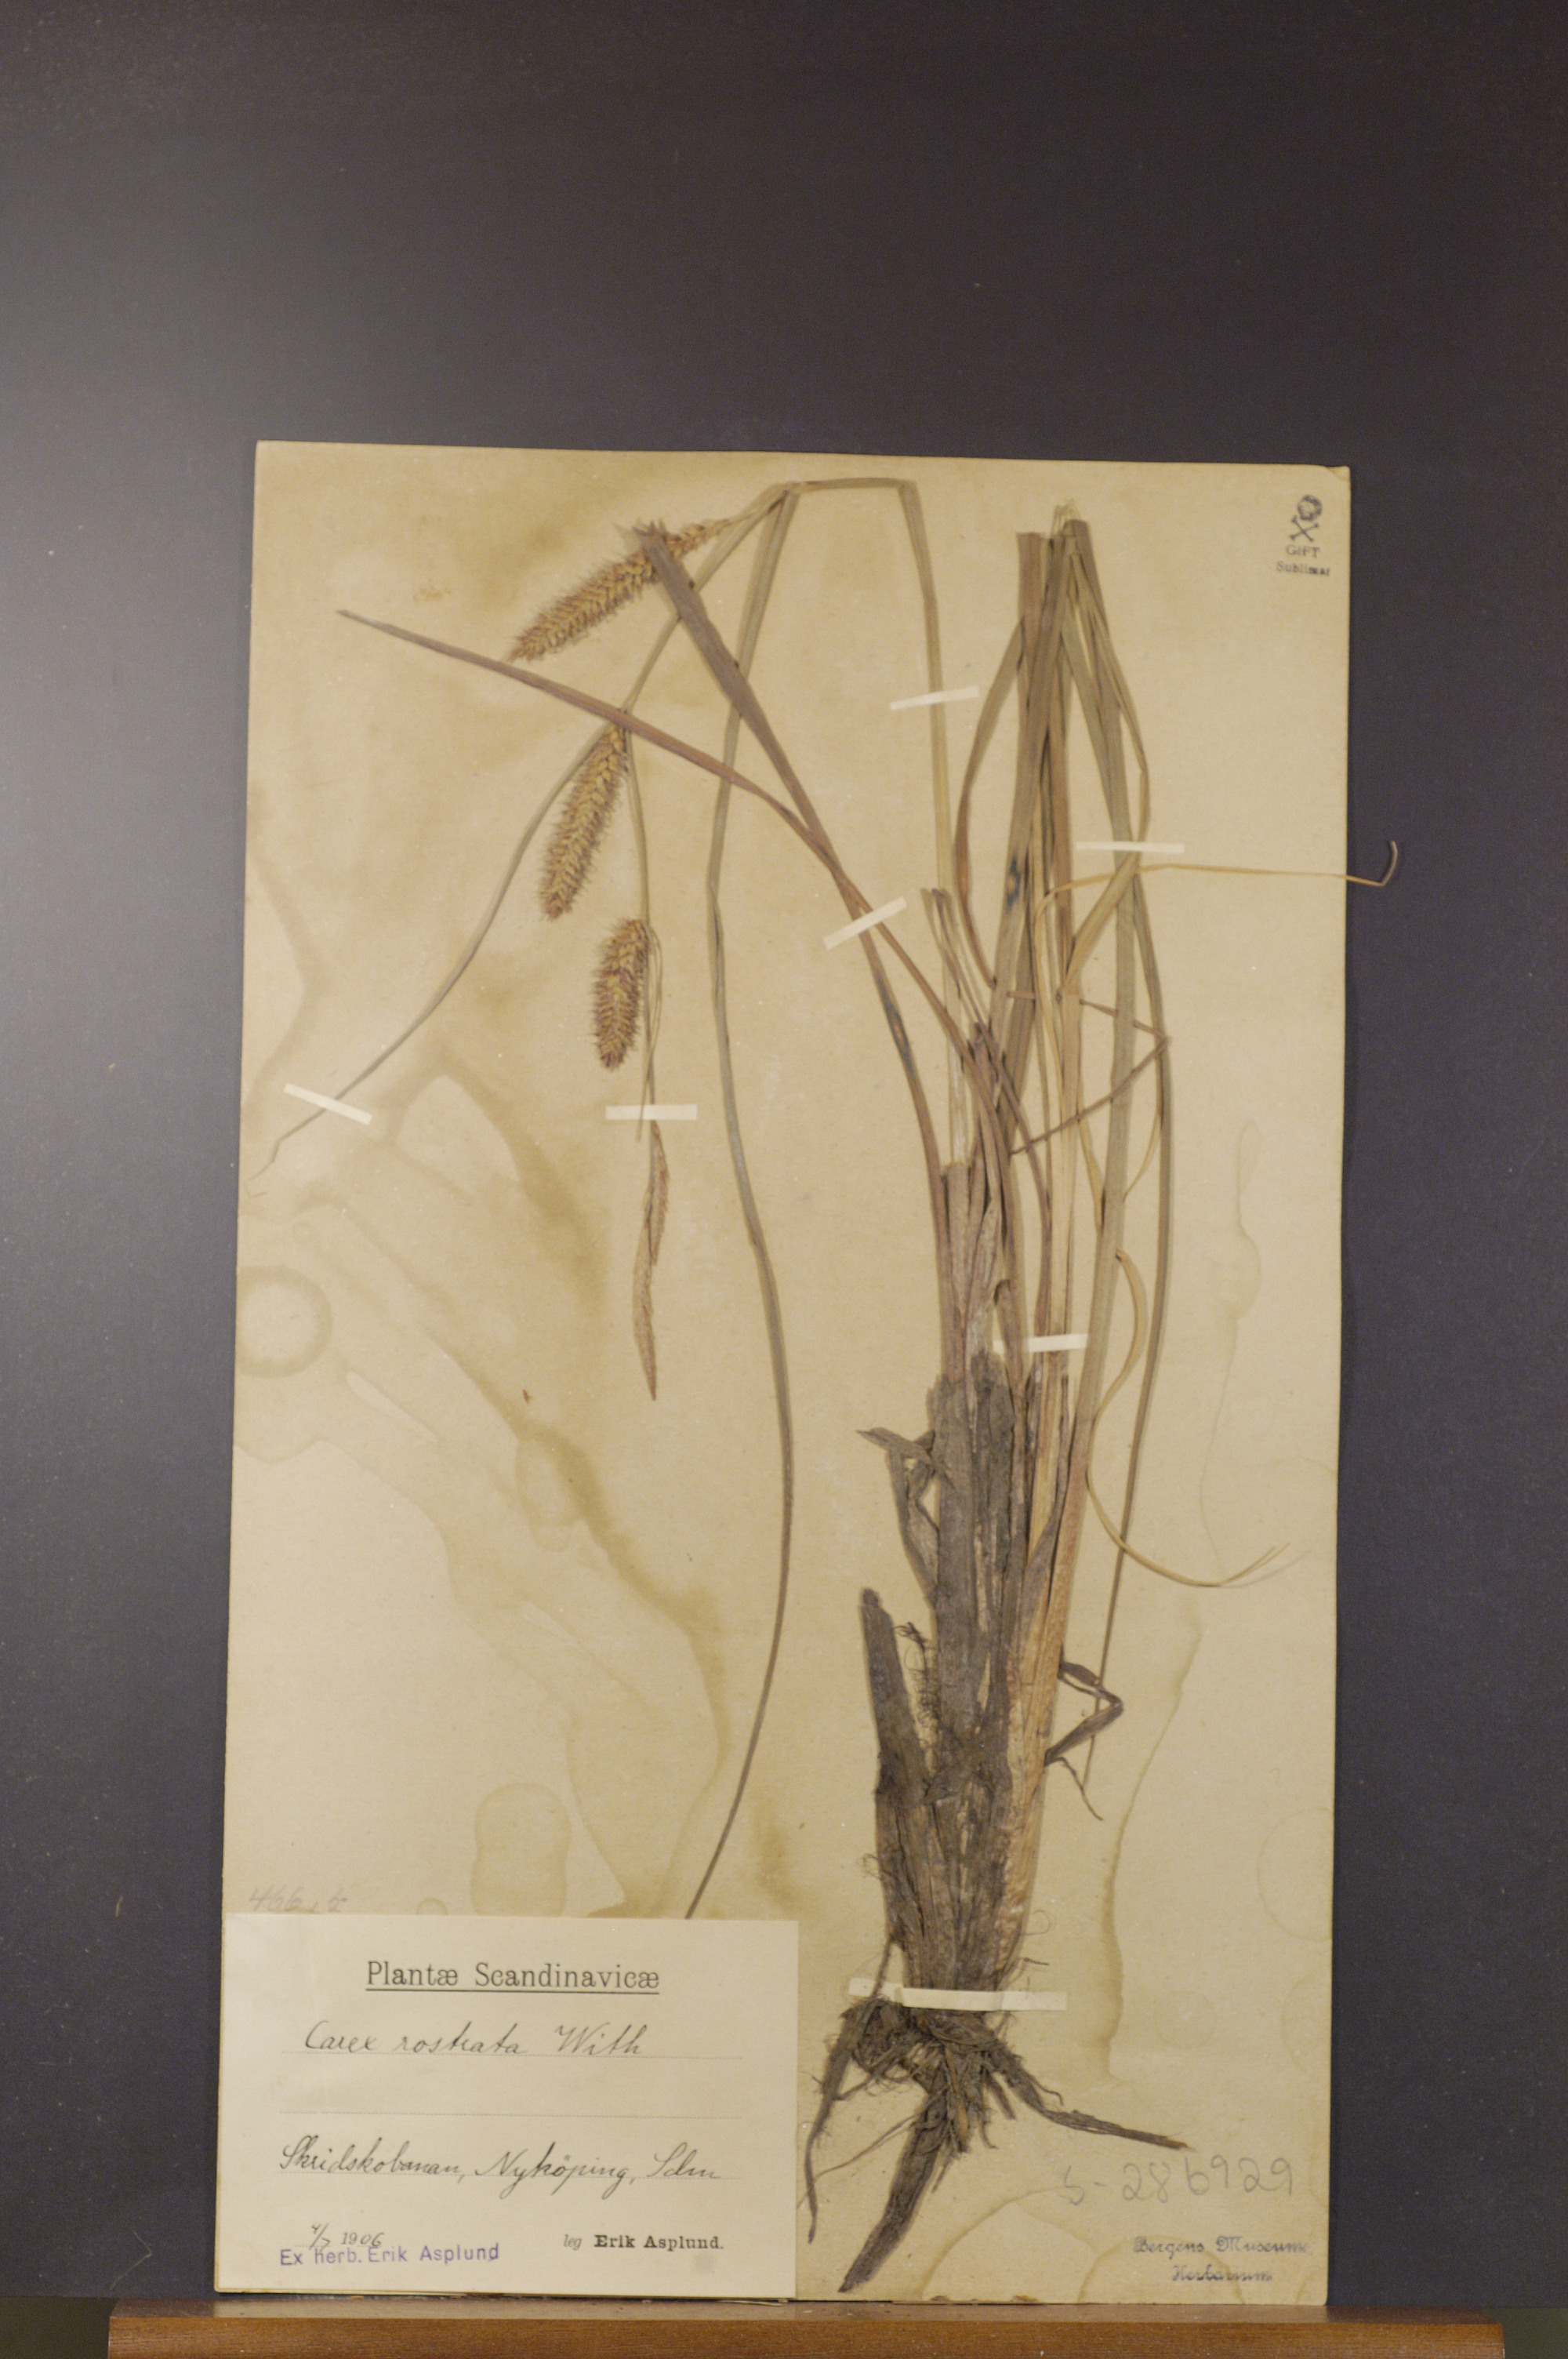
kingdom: Plantae
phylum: Tracheophyta
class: Liliopsida
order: Poales
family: Cyperaceae
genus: Carex
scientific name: Carex rostrata
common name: Bottle sedge
